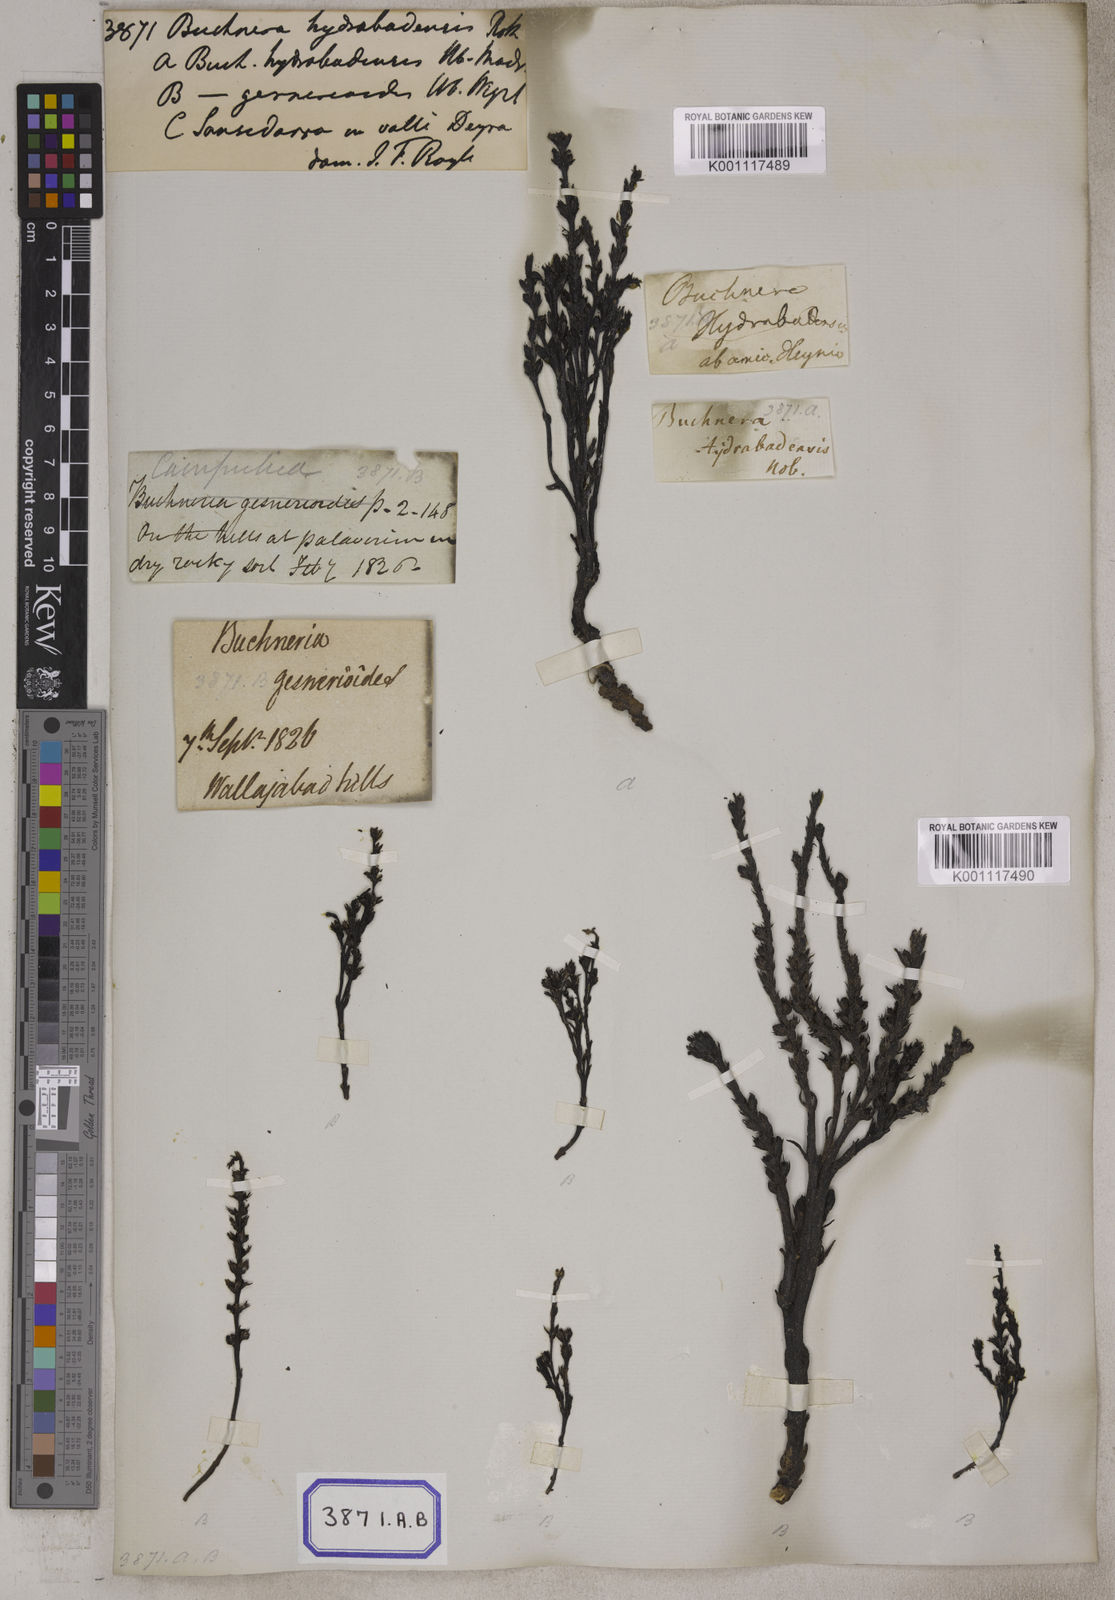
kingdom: Plantae
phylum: Tracheophyta
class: Magnoliopsida
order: Lamiales
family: Orobanchaceae
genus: Striga
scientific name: Striga gesnerioides
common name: Cowpea witchweed
